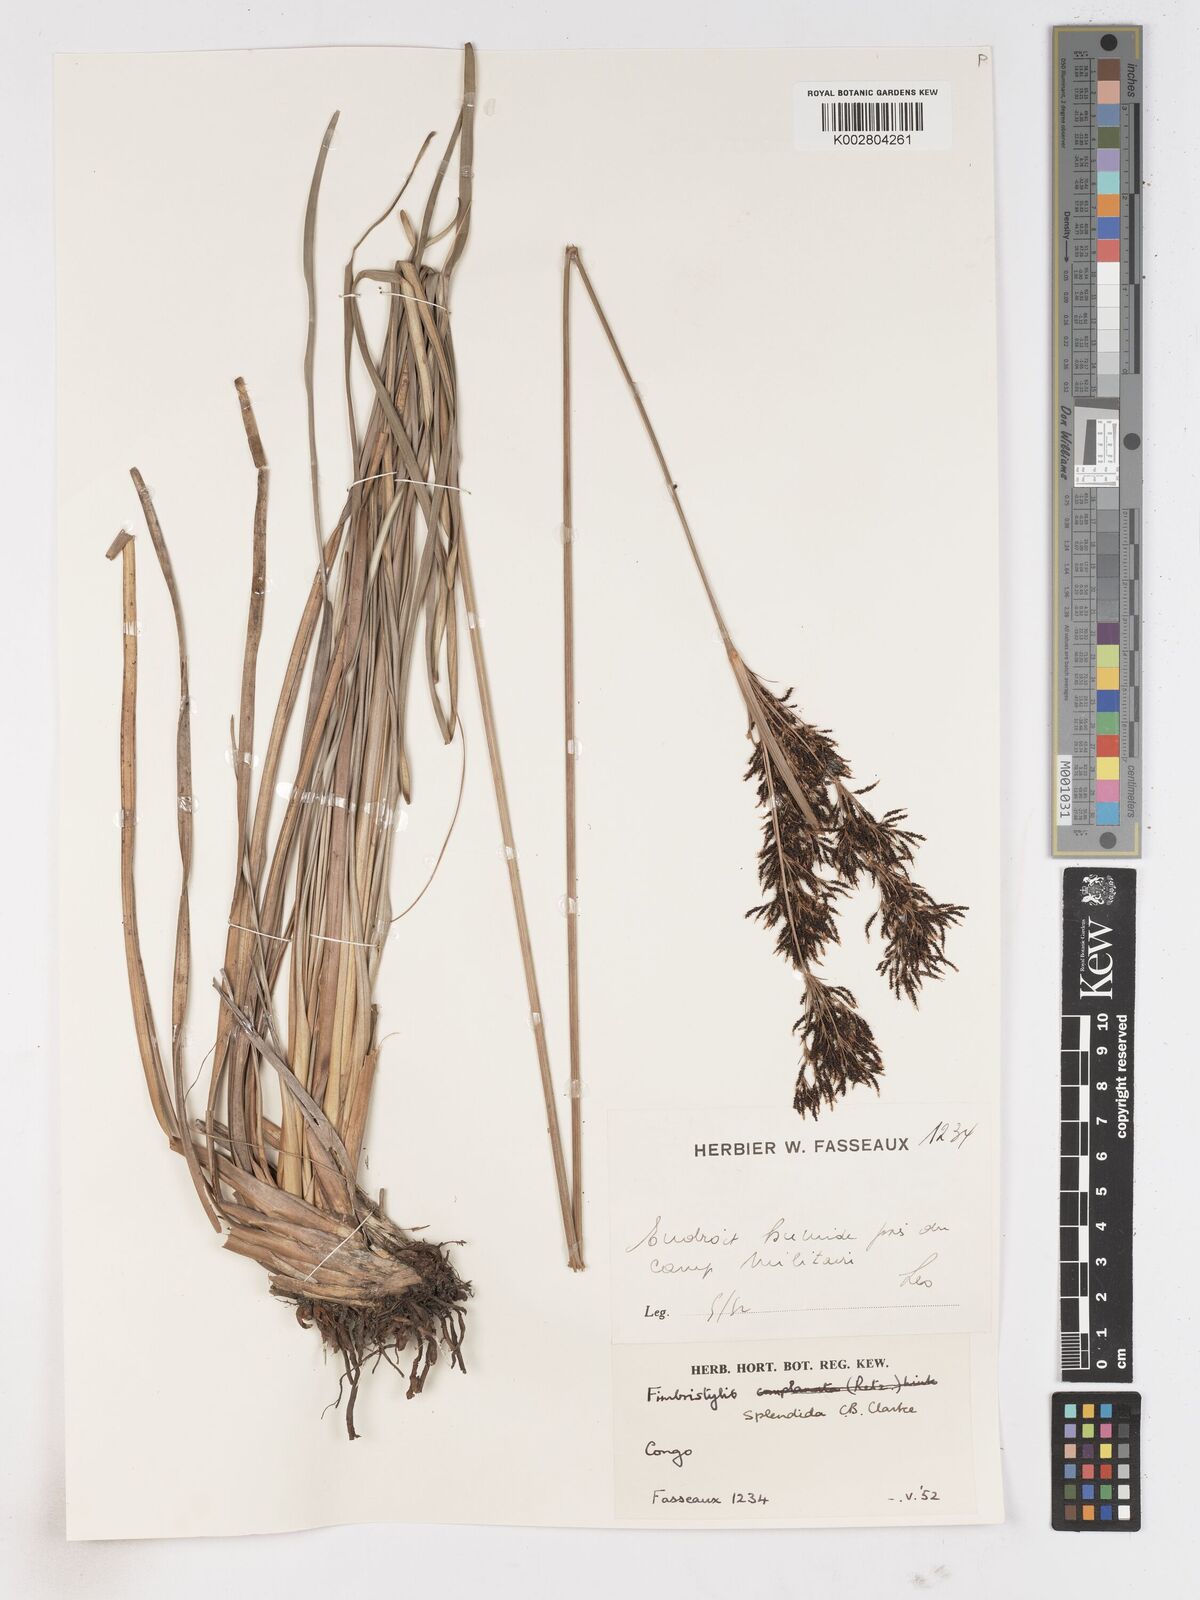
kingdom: Plantae
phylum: Tracheophyta
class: Liliopsida
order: Poales
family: Cyperaceae
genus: Fimbristylis
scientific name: Fimbristylis dura
